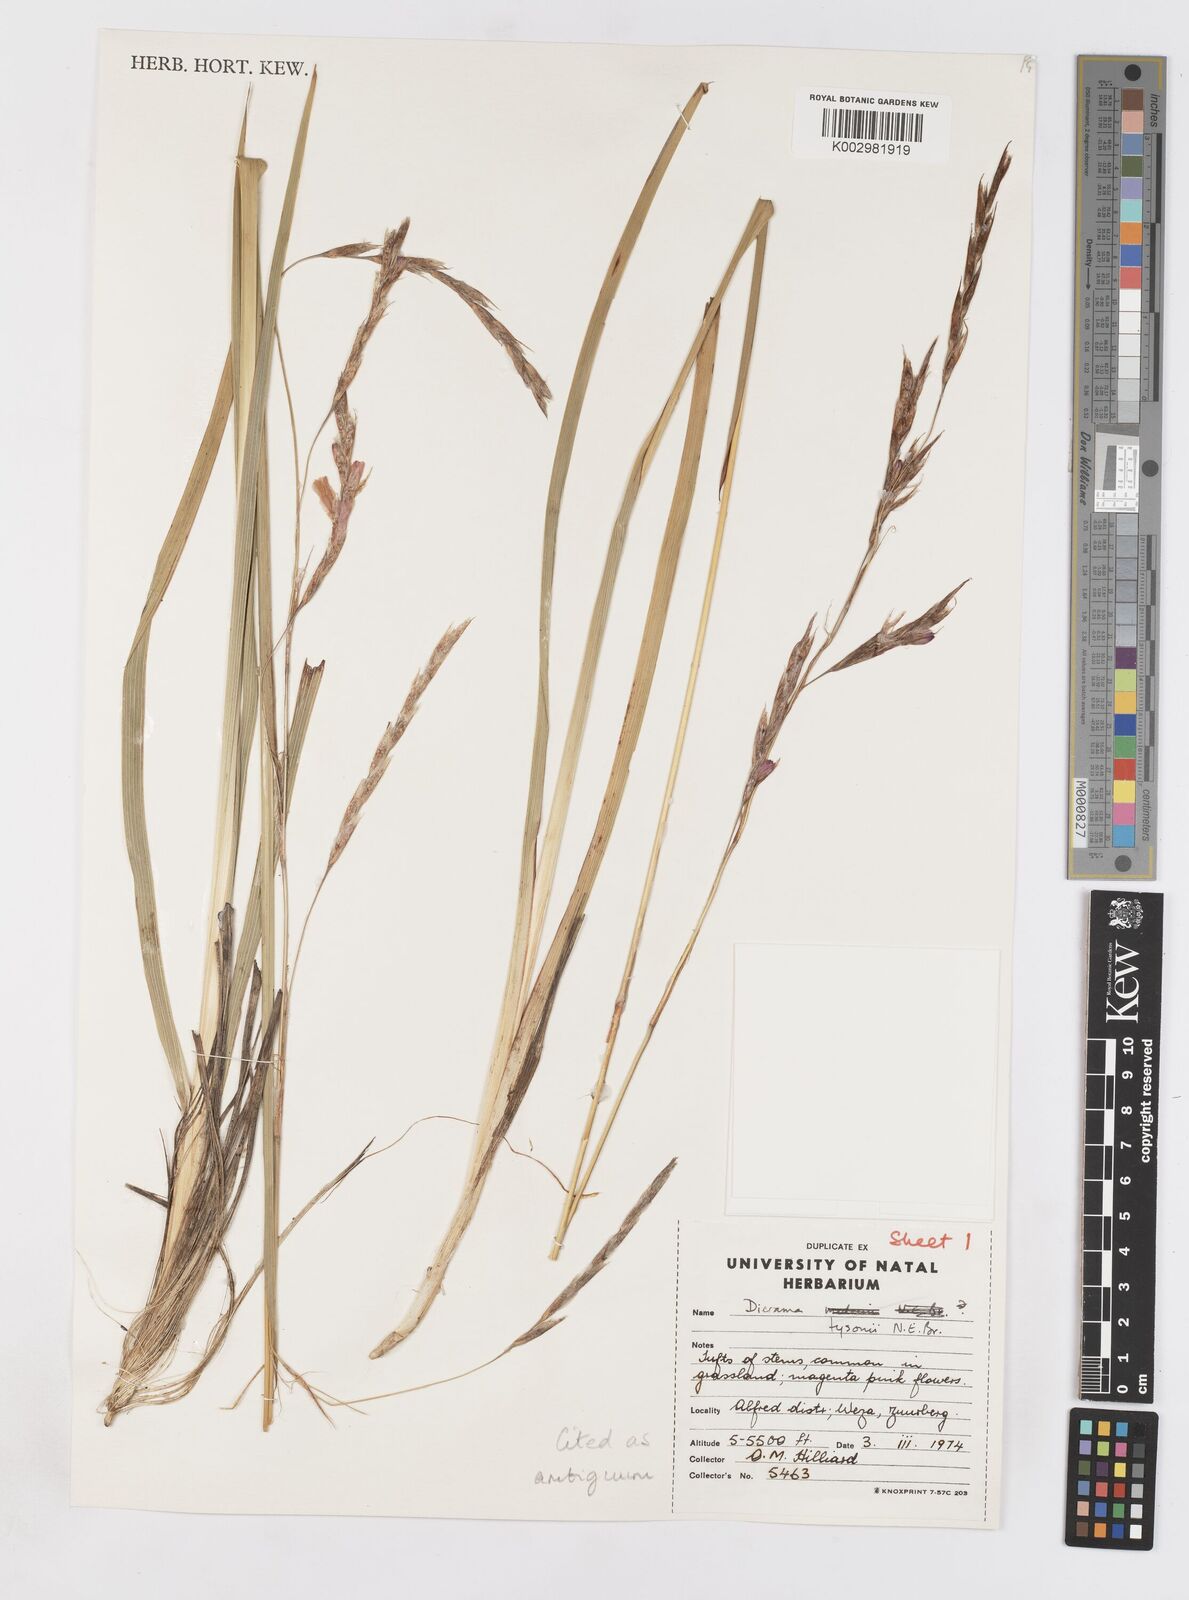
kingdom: Plantae
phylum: Tracheophyta
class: Liliopsida
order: Asparagales
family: Iridaceae
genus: Dierama
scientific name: Dierama
